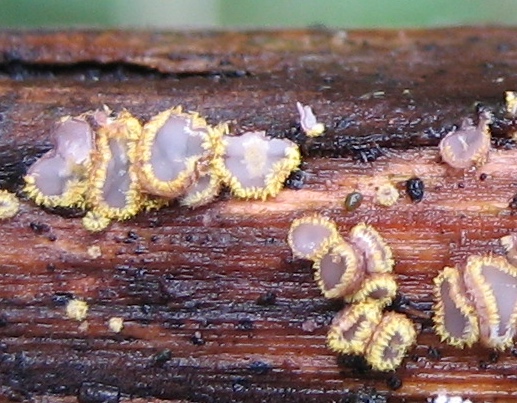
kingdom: Fungi
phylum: Ascomycota
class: Leotiomycetes
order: Helotiales
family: Lachnaceae
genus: Trichopeziza
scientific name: Trichopeziza
